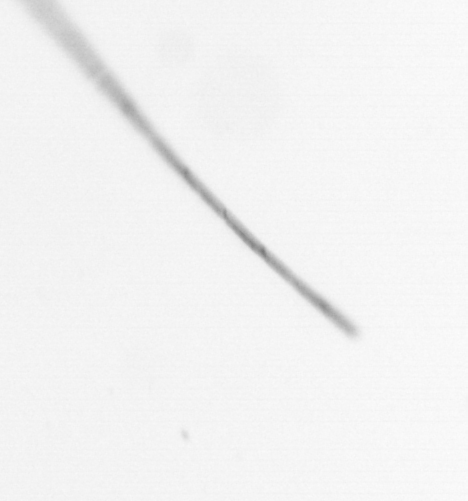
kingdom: Chromista
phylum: Ochrophyta
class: Bacillariophyceae
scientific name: Bacillariophyceae
